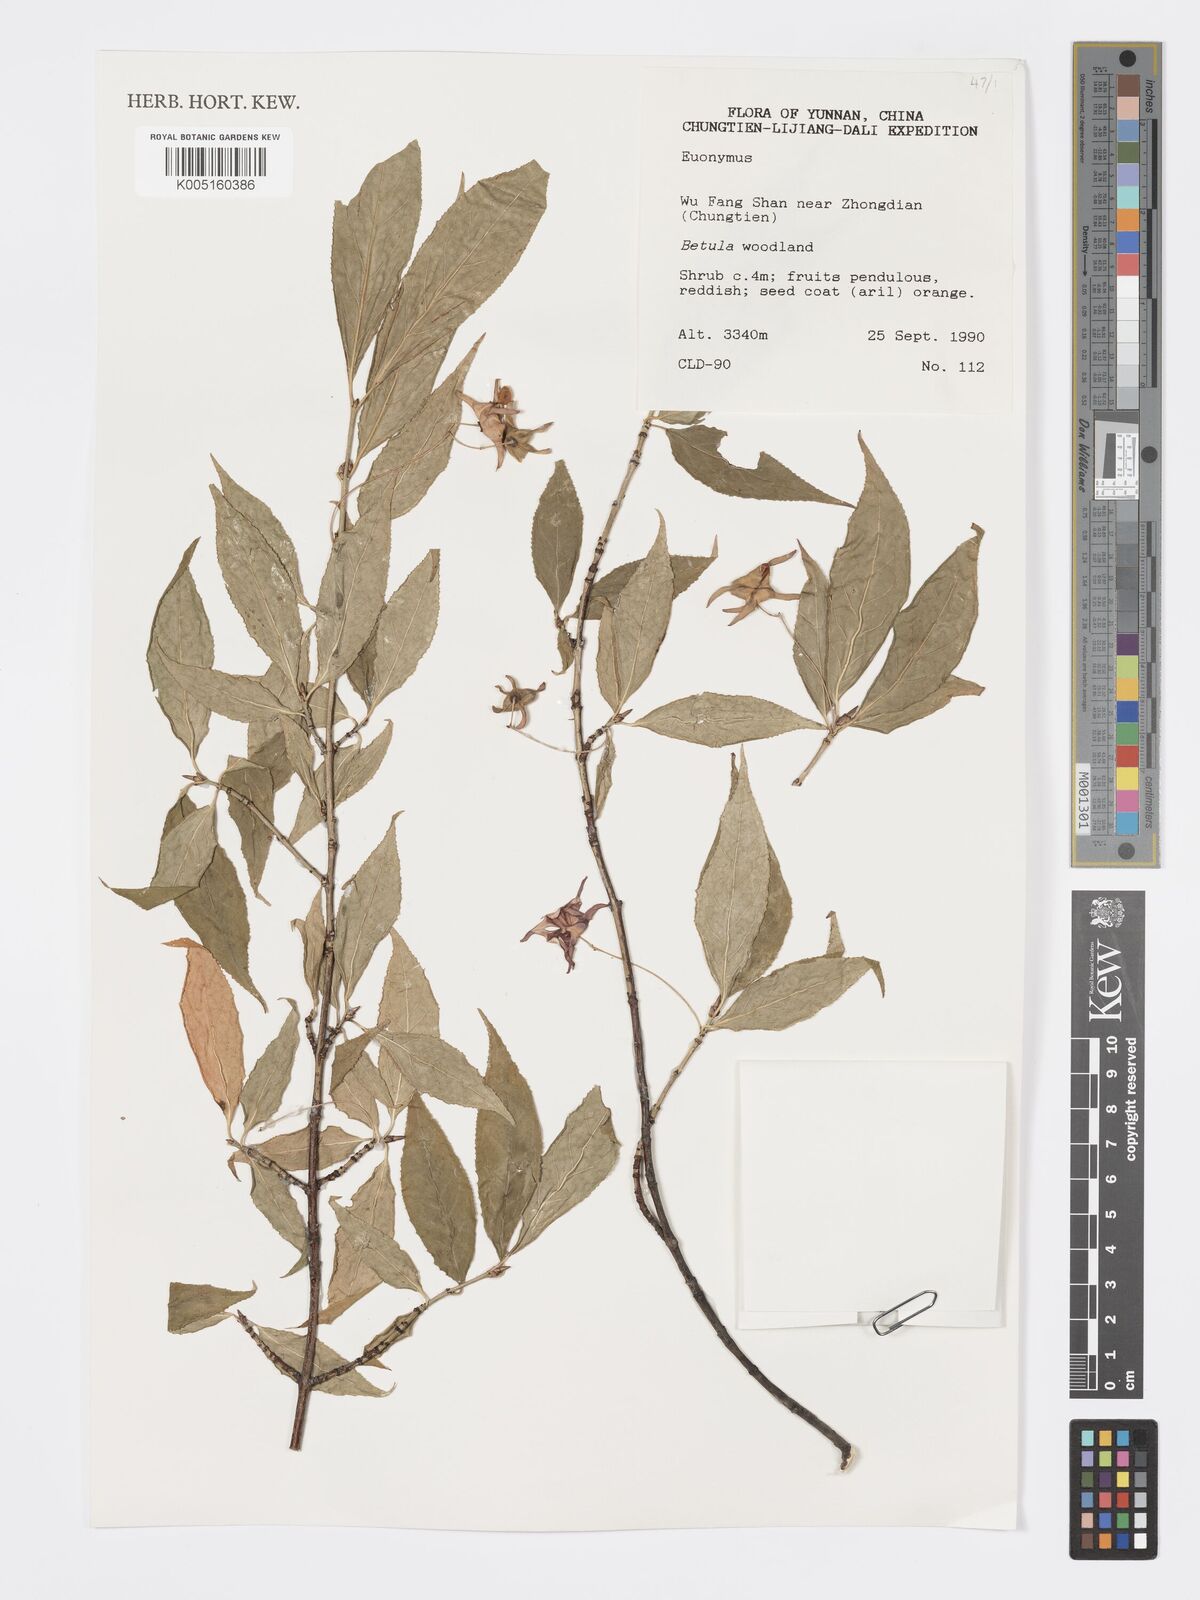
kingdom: Plantae
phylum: Tracheophyta
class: Magnoliopsida
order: Celastrales
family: Celastraceae
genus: Euonymus
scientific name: Euonymus
